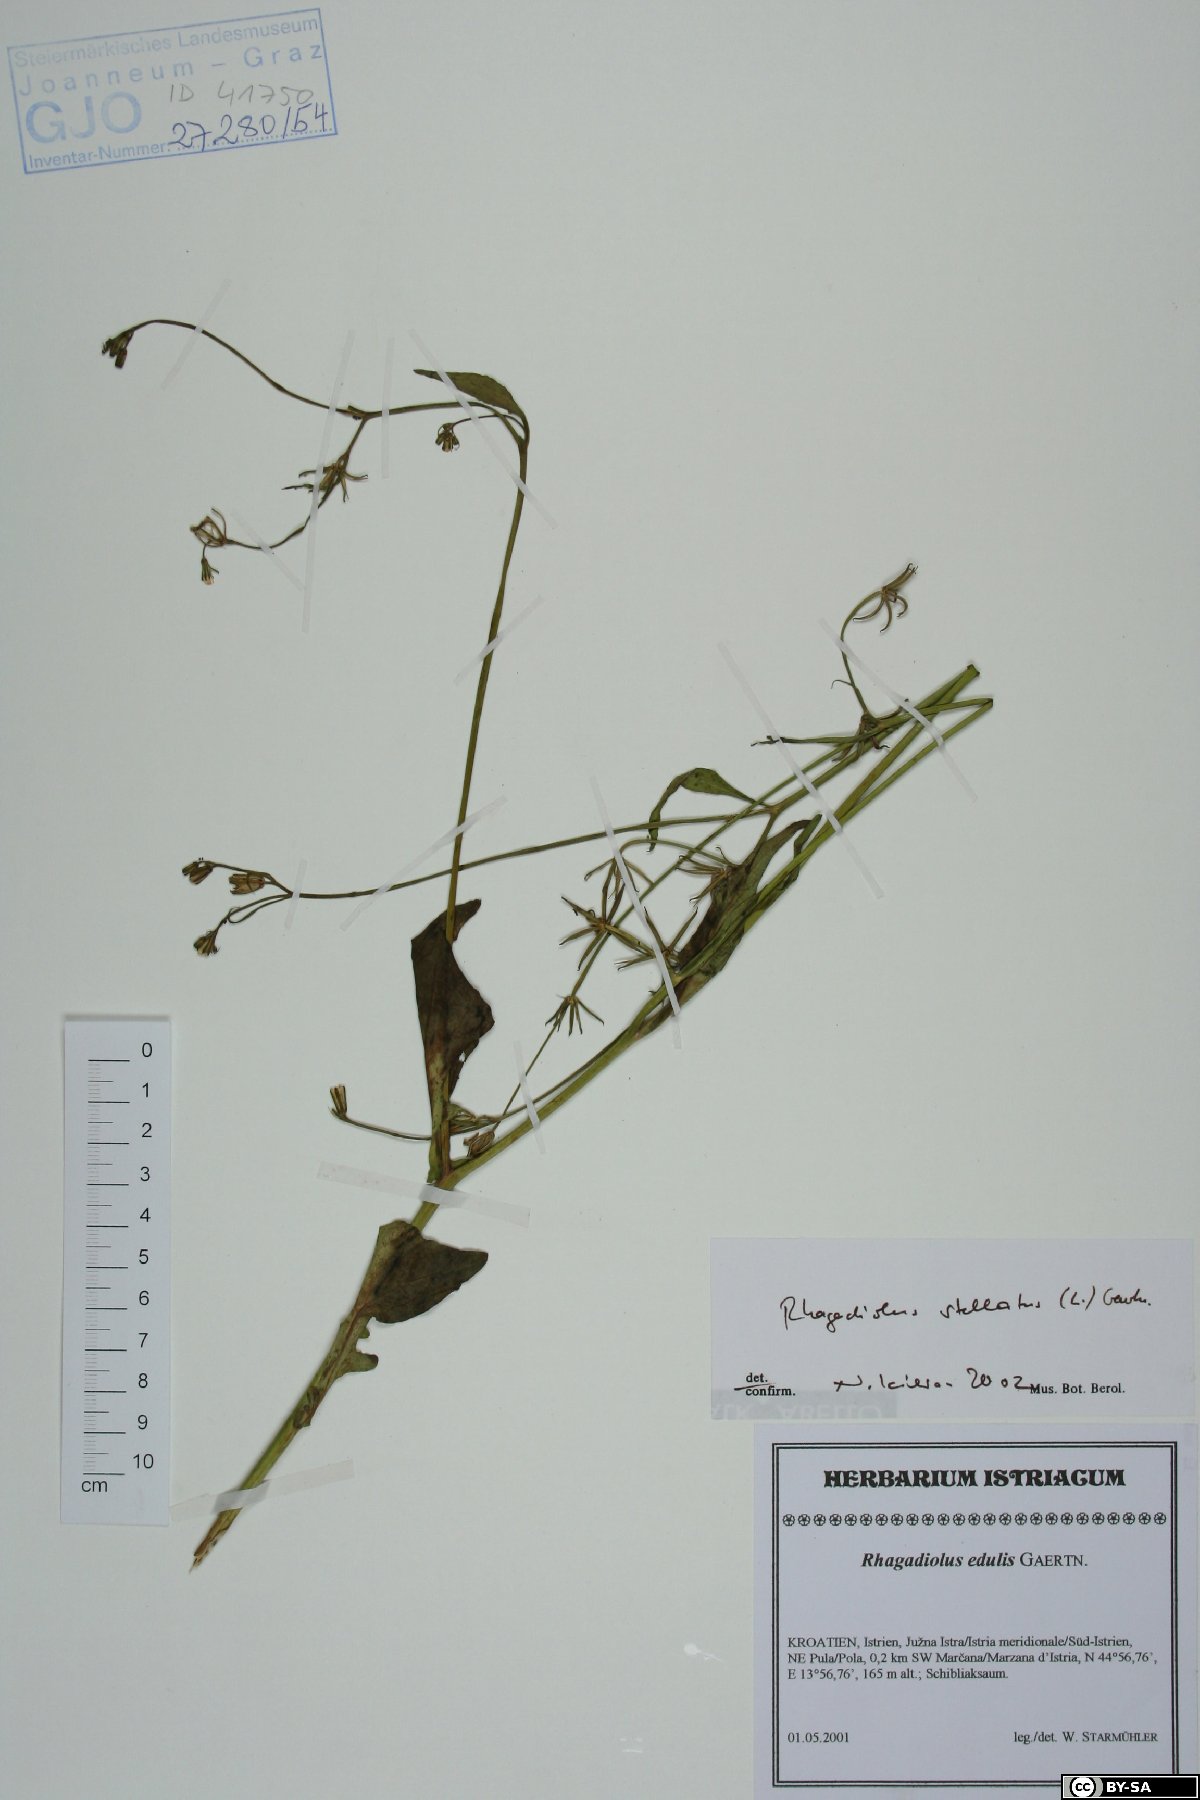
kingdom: Plantae
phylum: Tracheophyta
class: Magnoliopsida
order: Asterales
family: Asteraceae
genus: Rhagadiolus
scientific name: Rhagadiolus stellatus
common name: Star hawkbit
